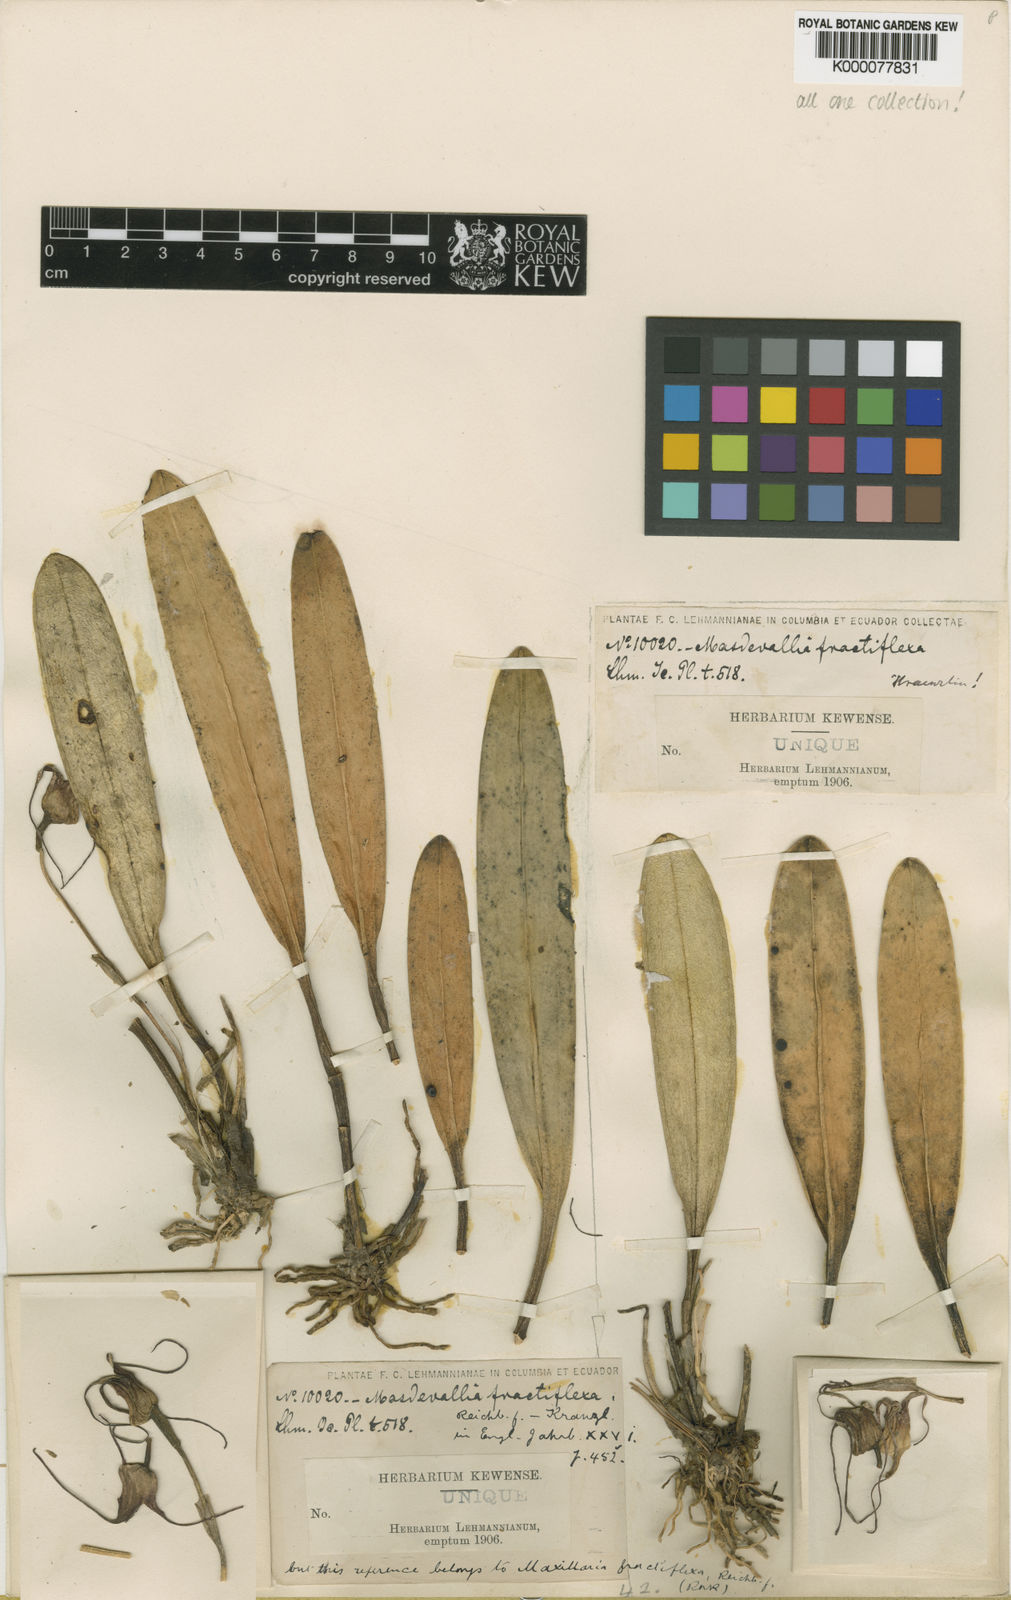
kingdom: Plantae
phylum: Tracheophyta
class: Liliopsida
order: Asparagales
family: Orchidaceae
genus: Masdevallia
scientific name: Masdevallia
